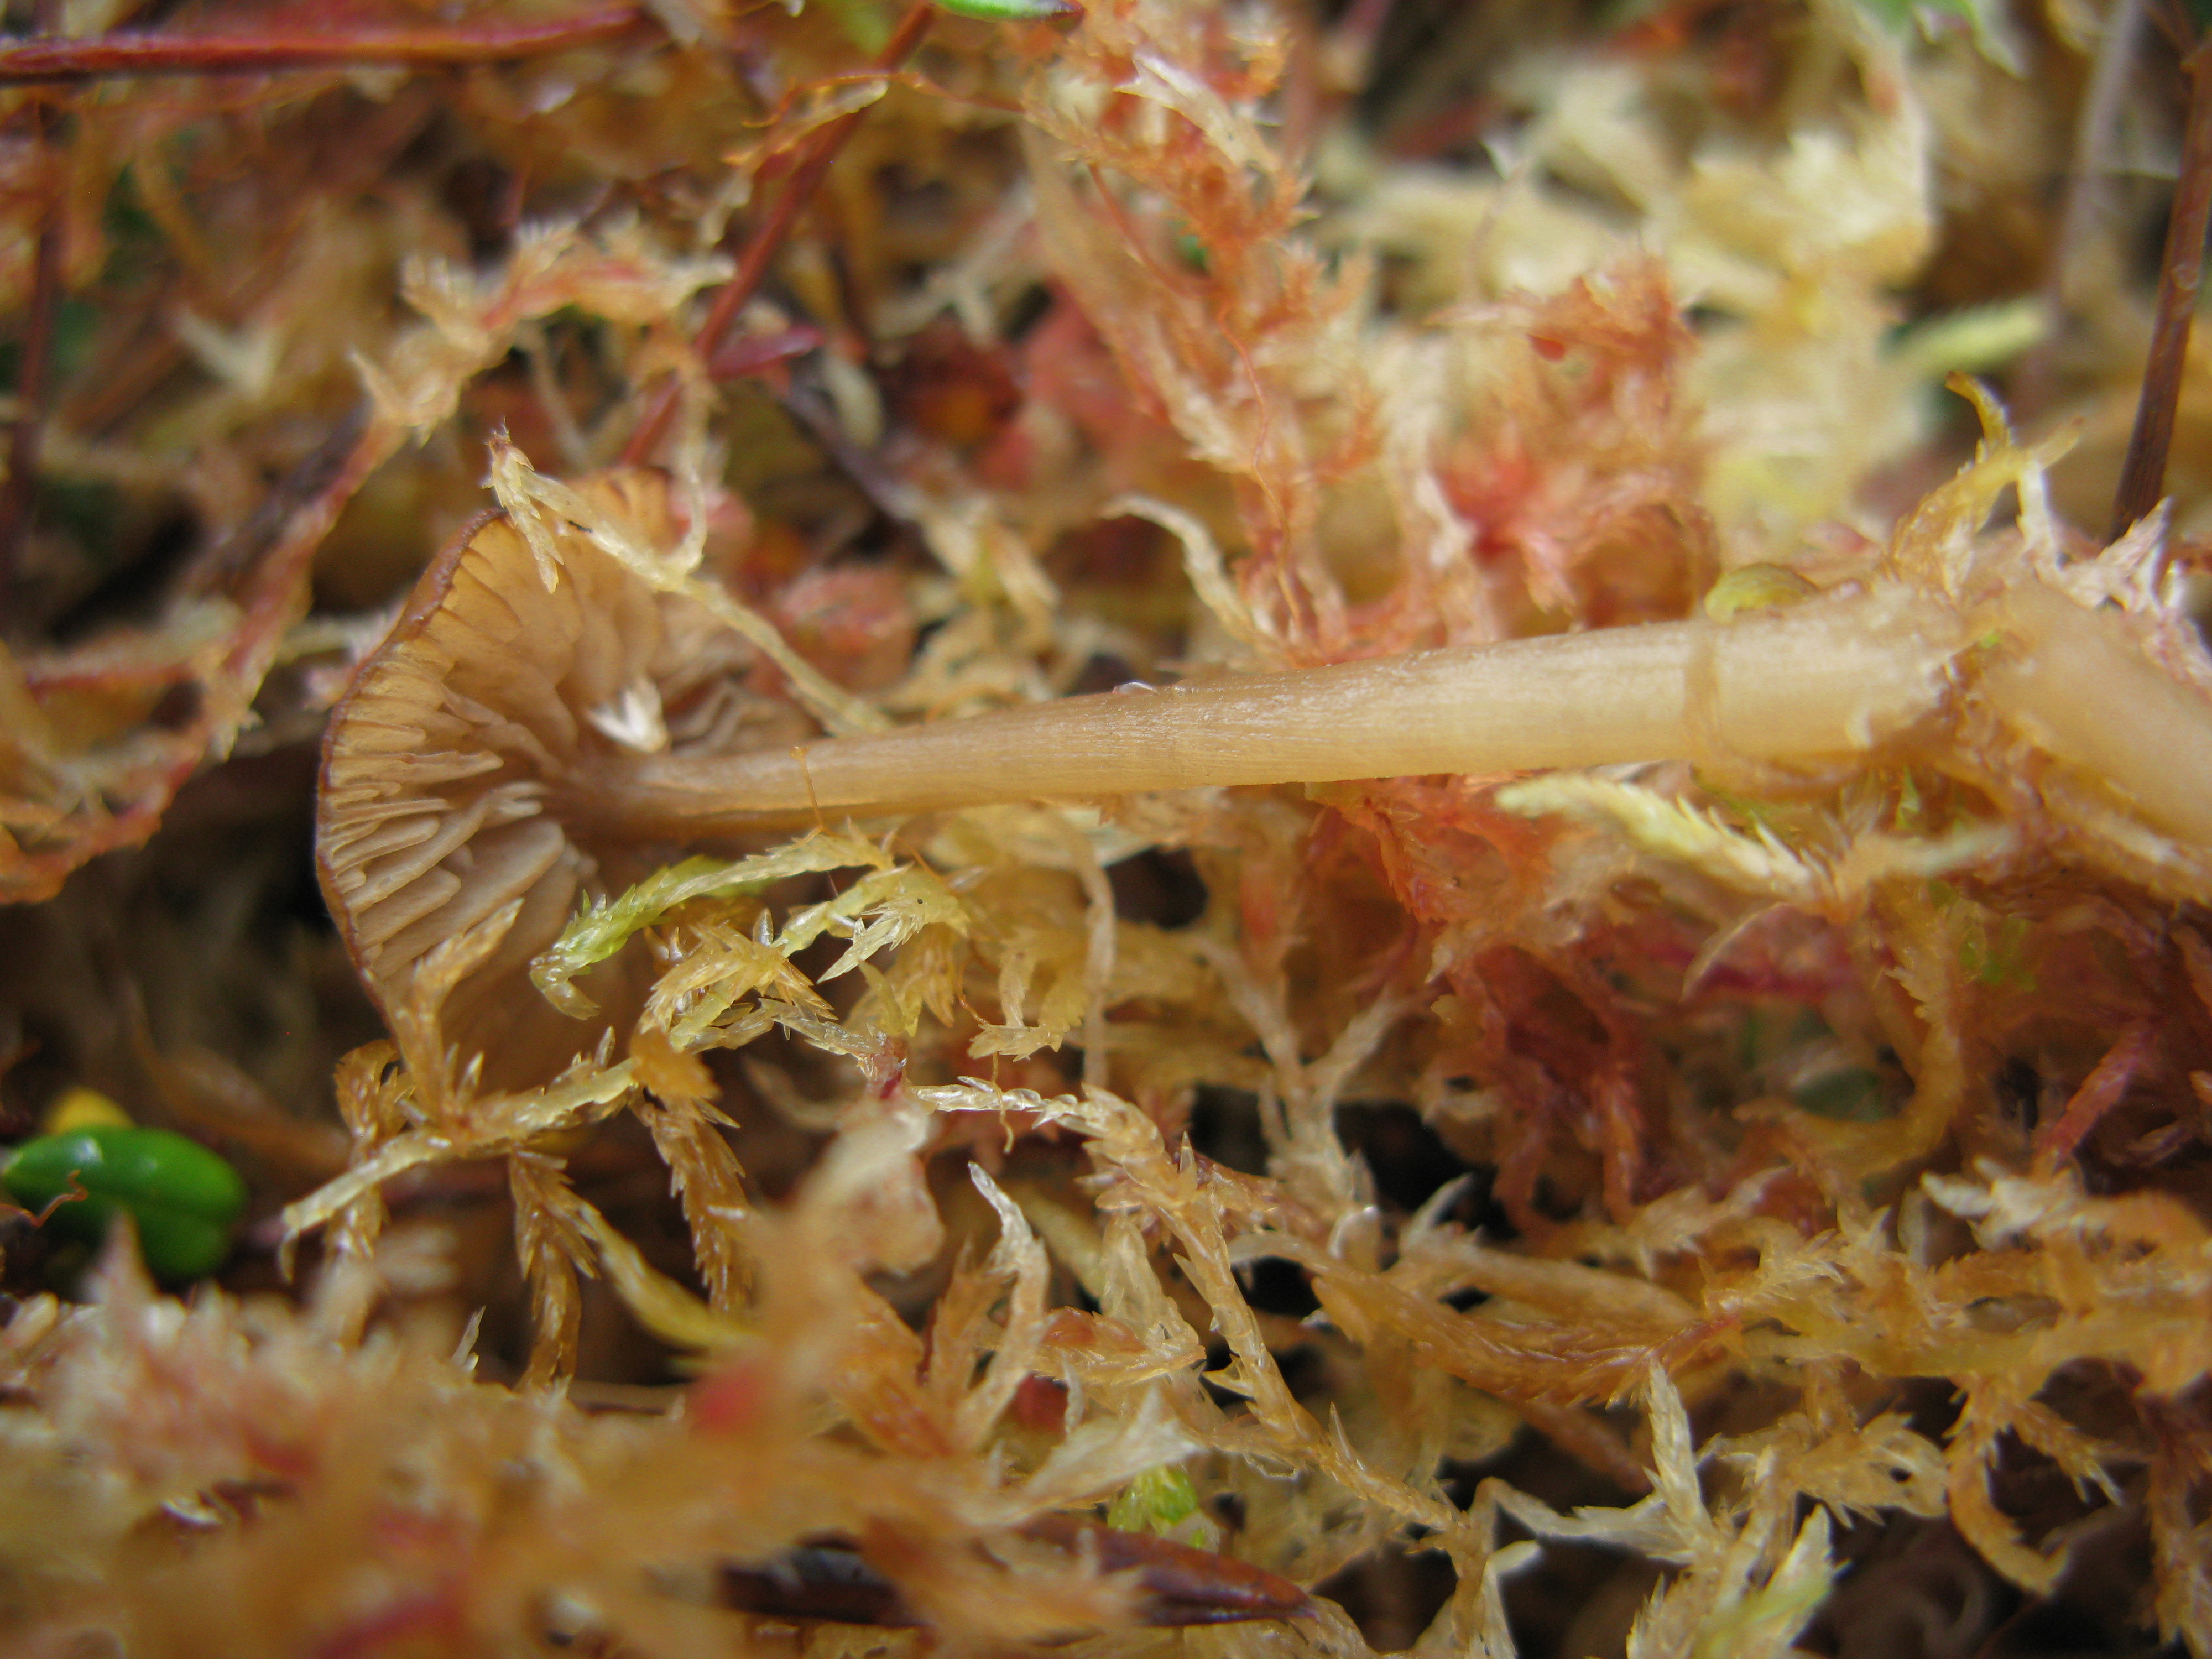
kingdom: Fungi
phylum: Basidiomycota
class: Agaricomycetes
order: Agaricales
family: Entolomataceae
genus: Entoloma
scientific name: Entoloma
